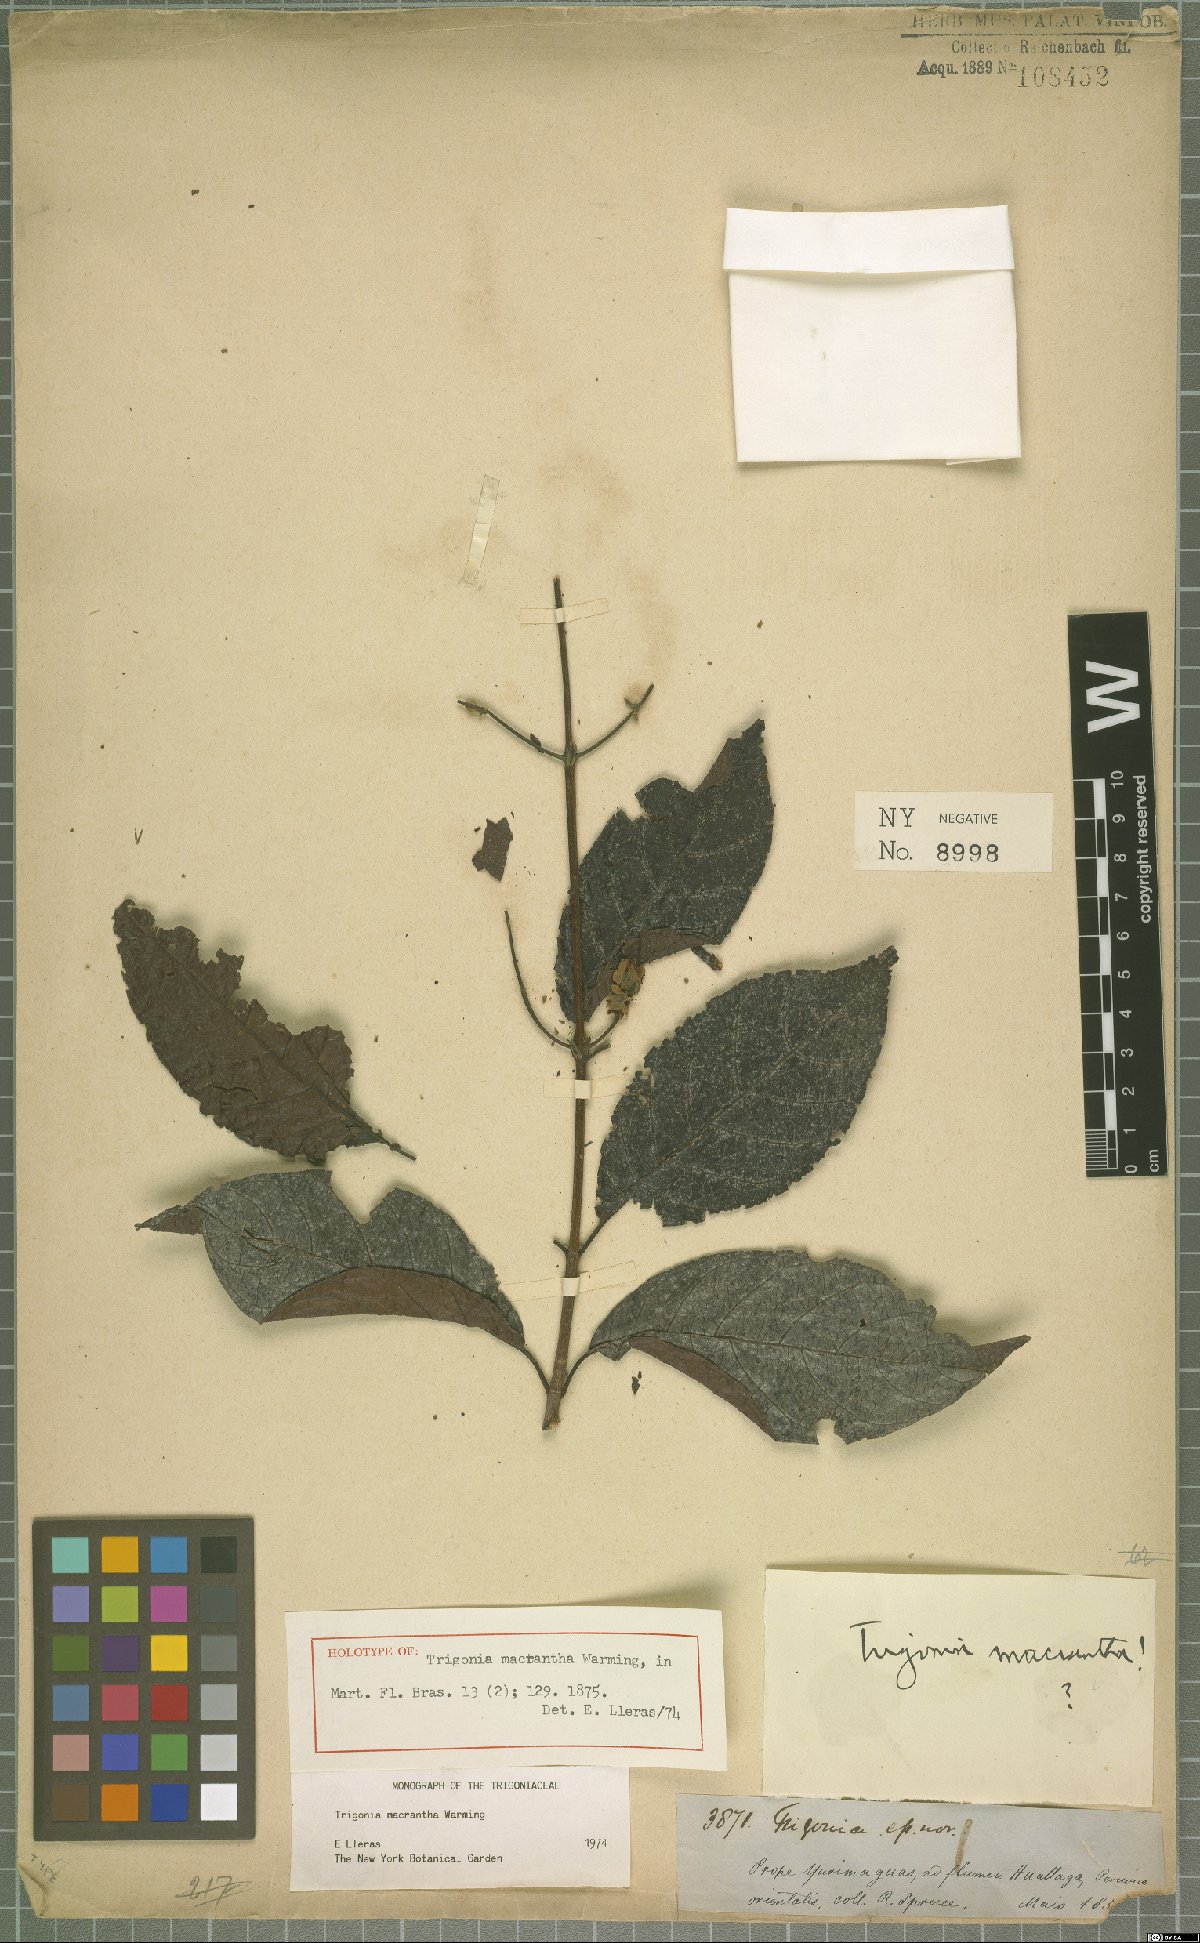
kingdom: Plantae
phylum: Tracheophyta
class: Magnoliopsida
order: Malpighiales
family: Trigoniaceae
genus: Trigonia
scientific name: Trigonia macrantha
